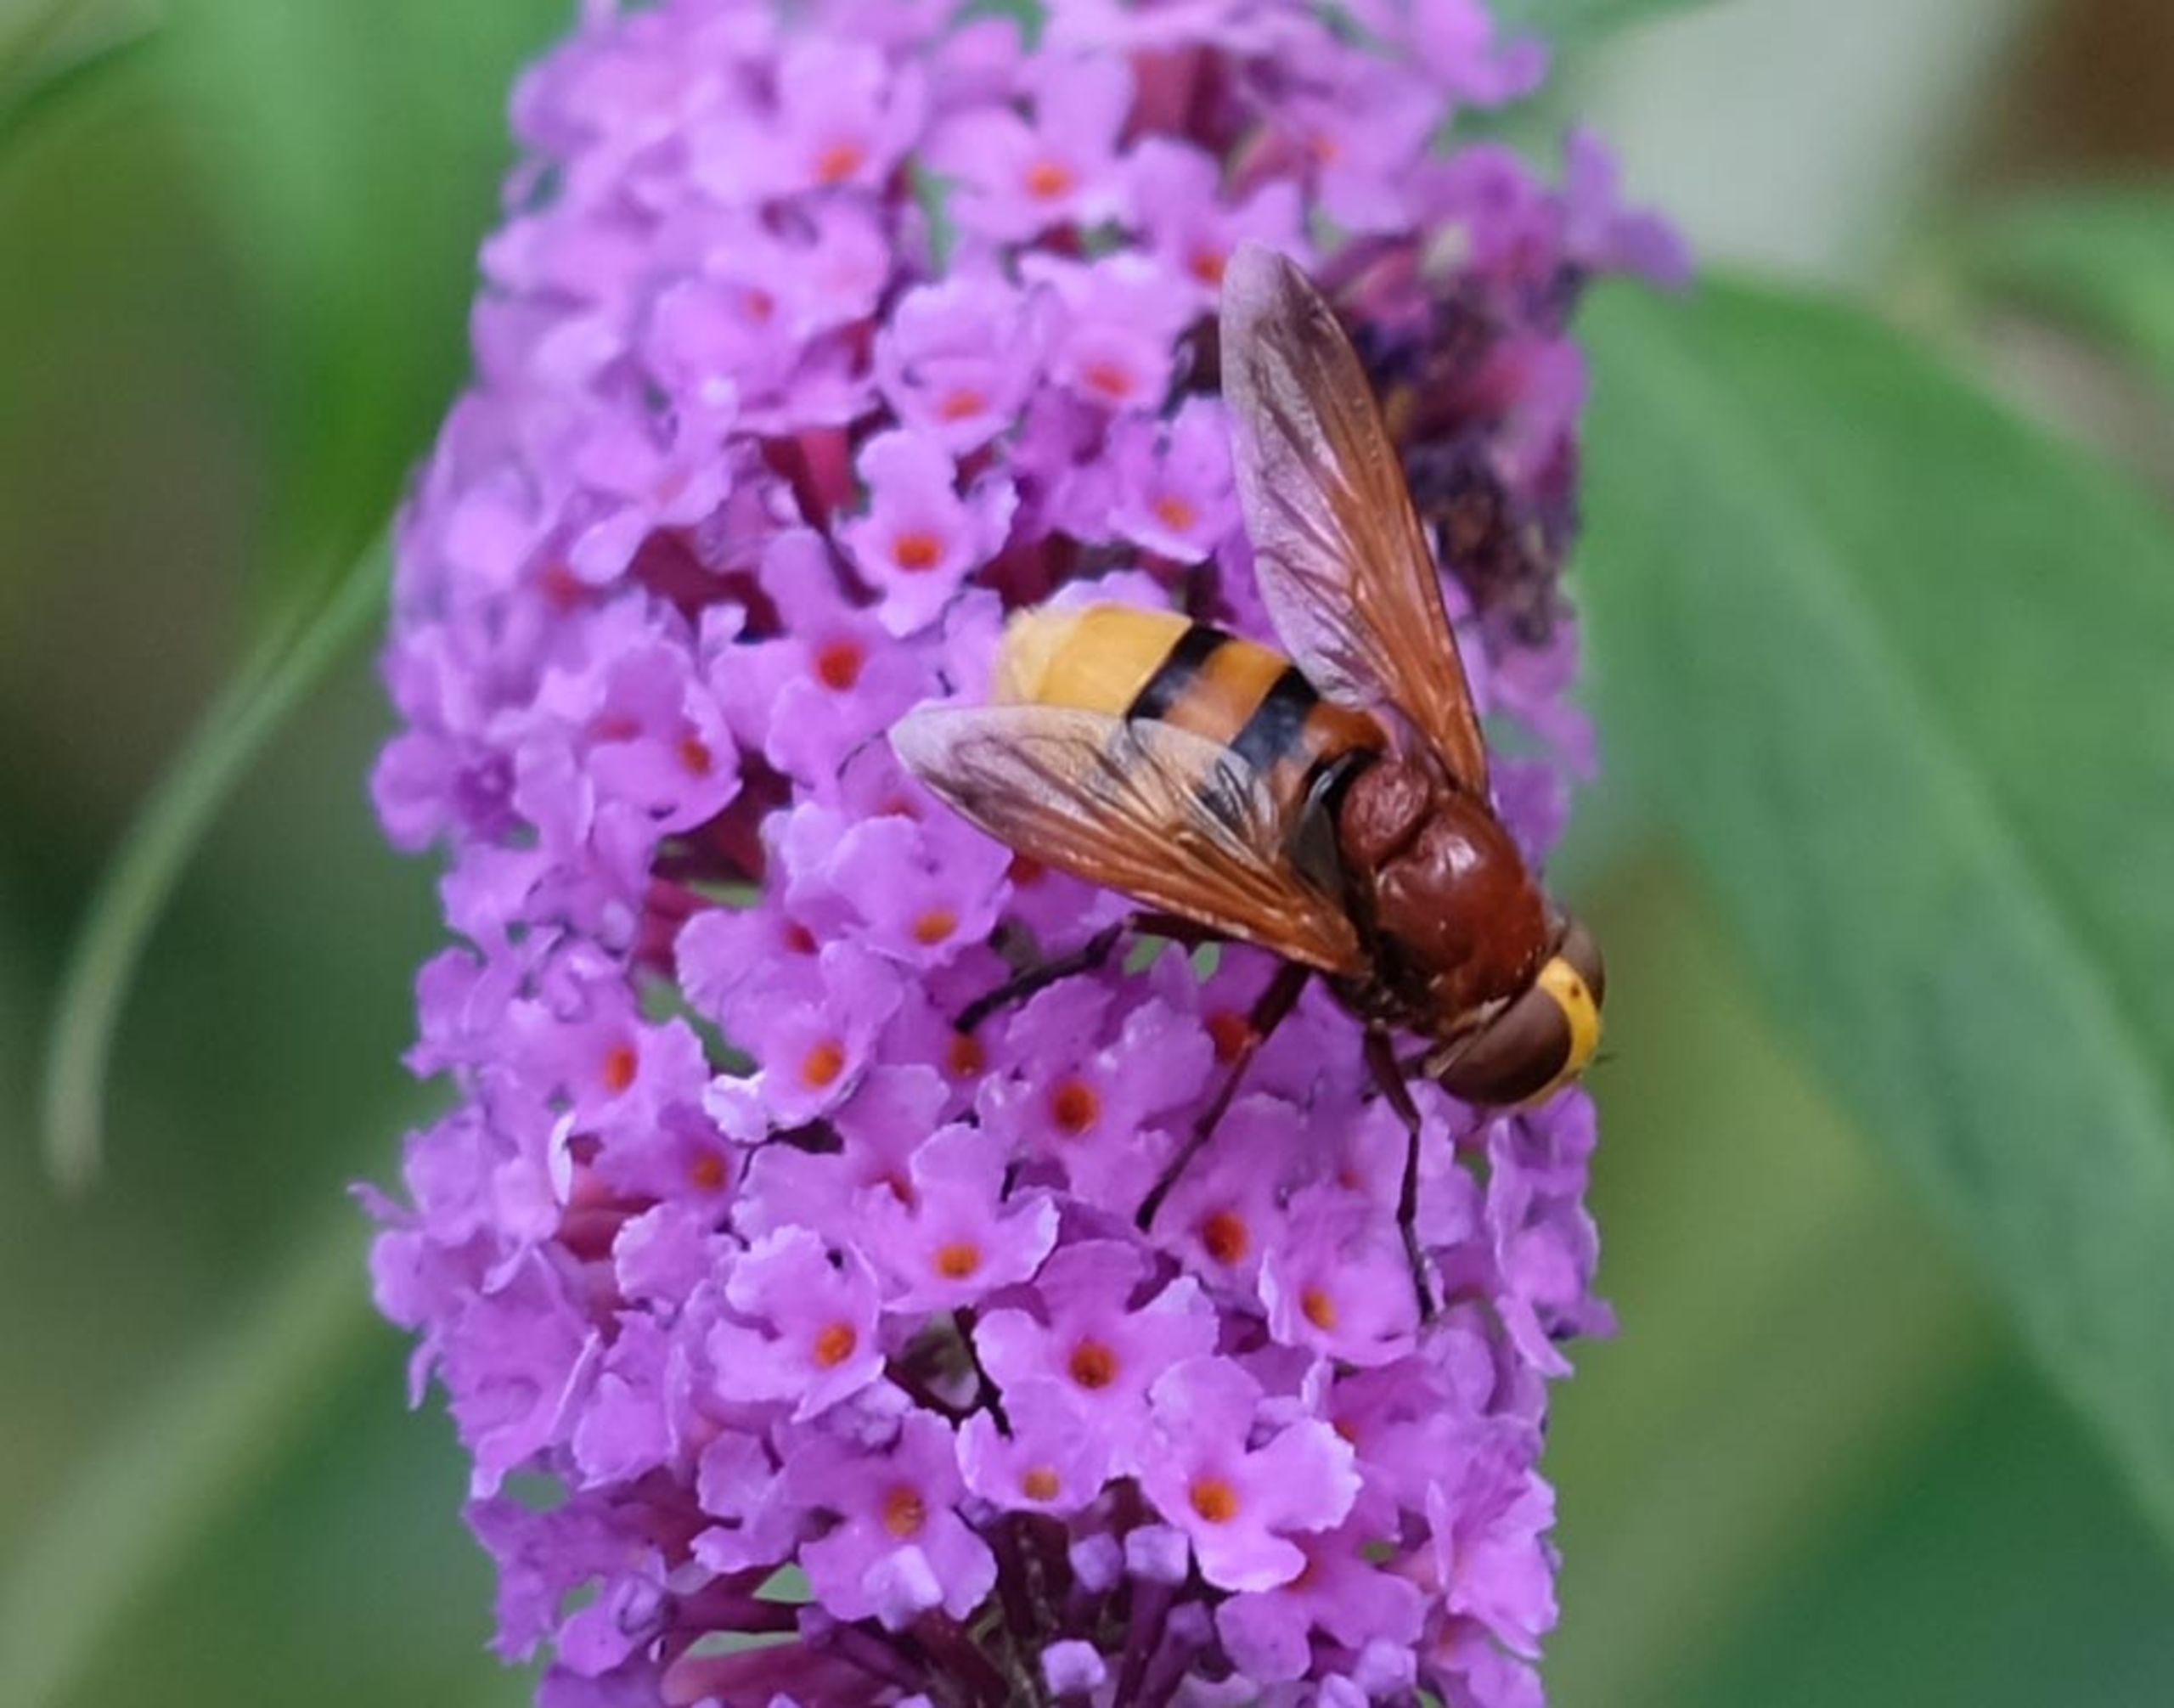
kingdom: Animalia
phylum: Arthropoda
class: Insecta
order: Diptera
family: Syrphidae
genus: Volucella
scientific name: Volucella zonaria
